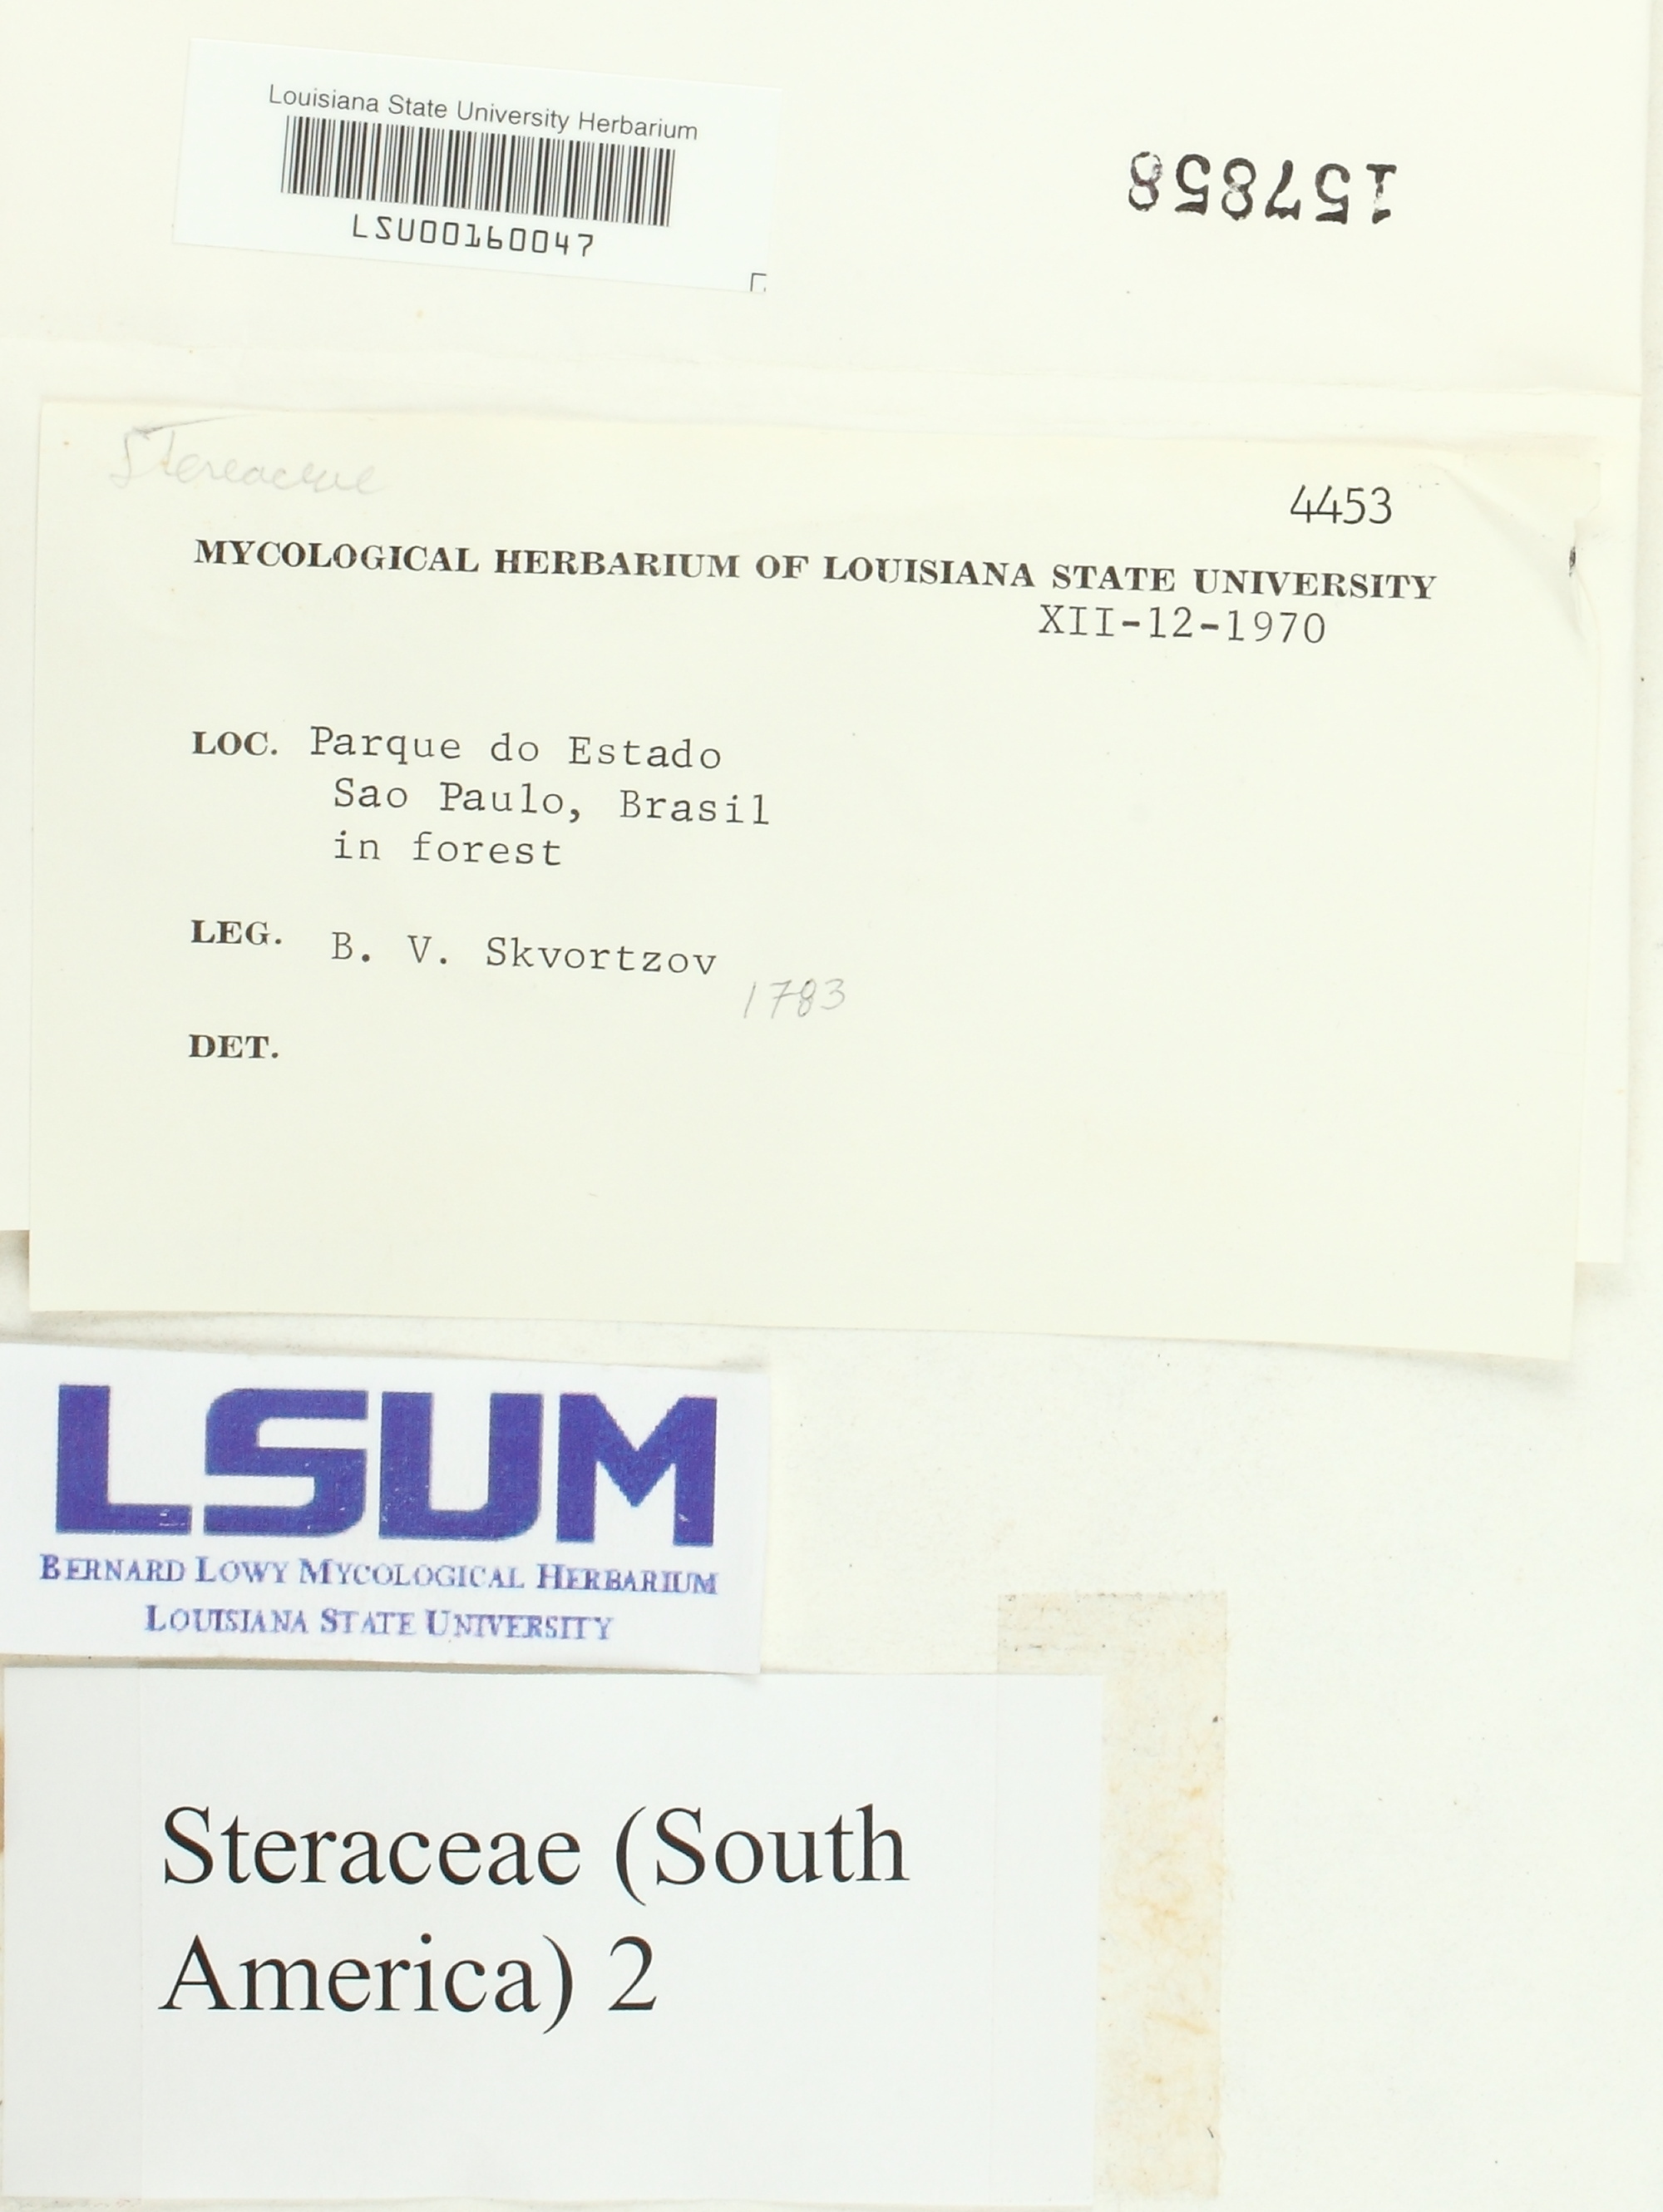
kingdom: Fungi
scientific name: Fungi
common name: Fungi
